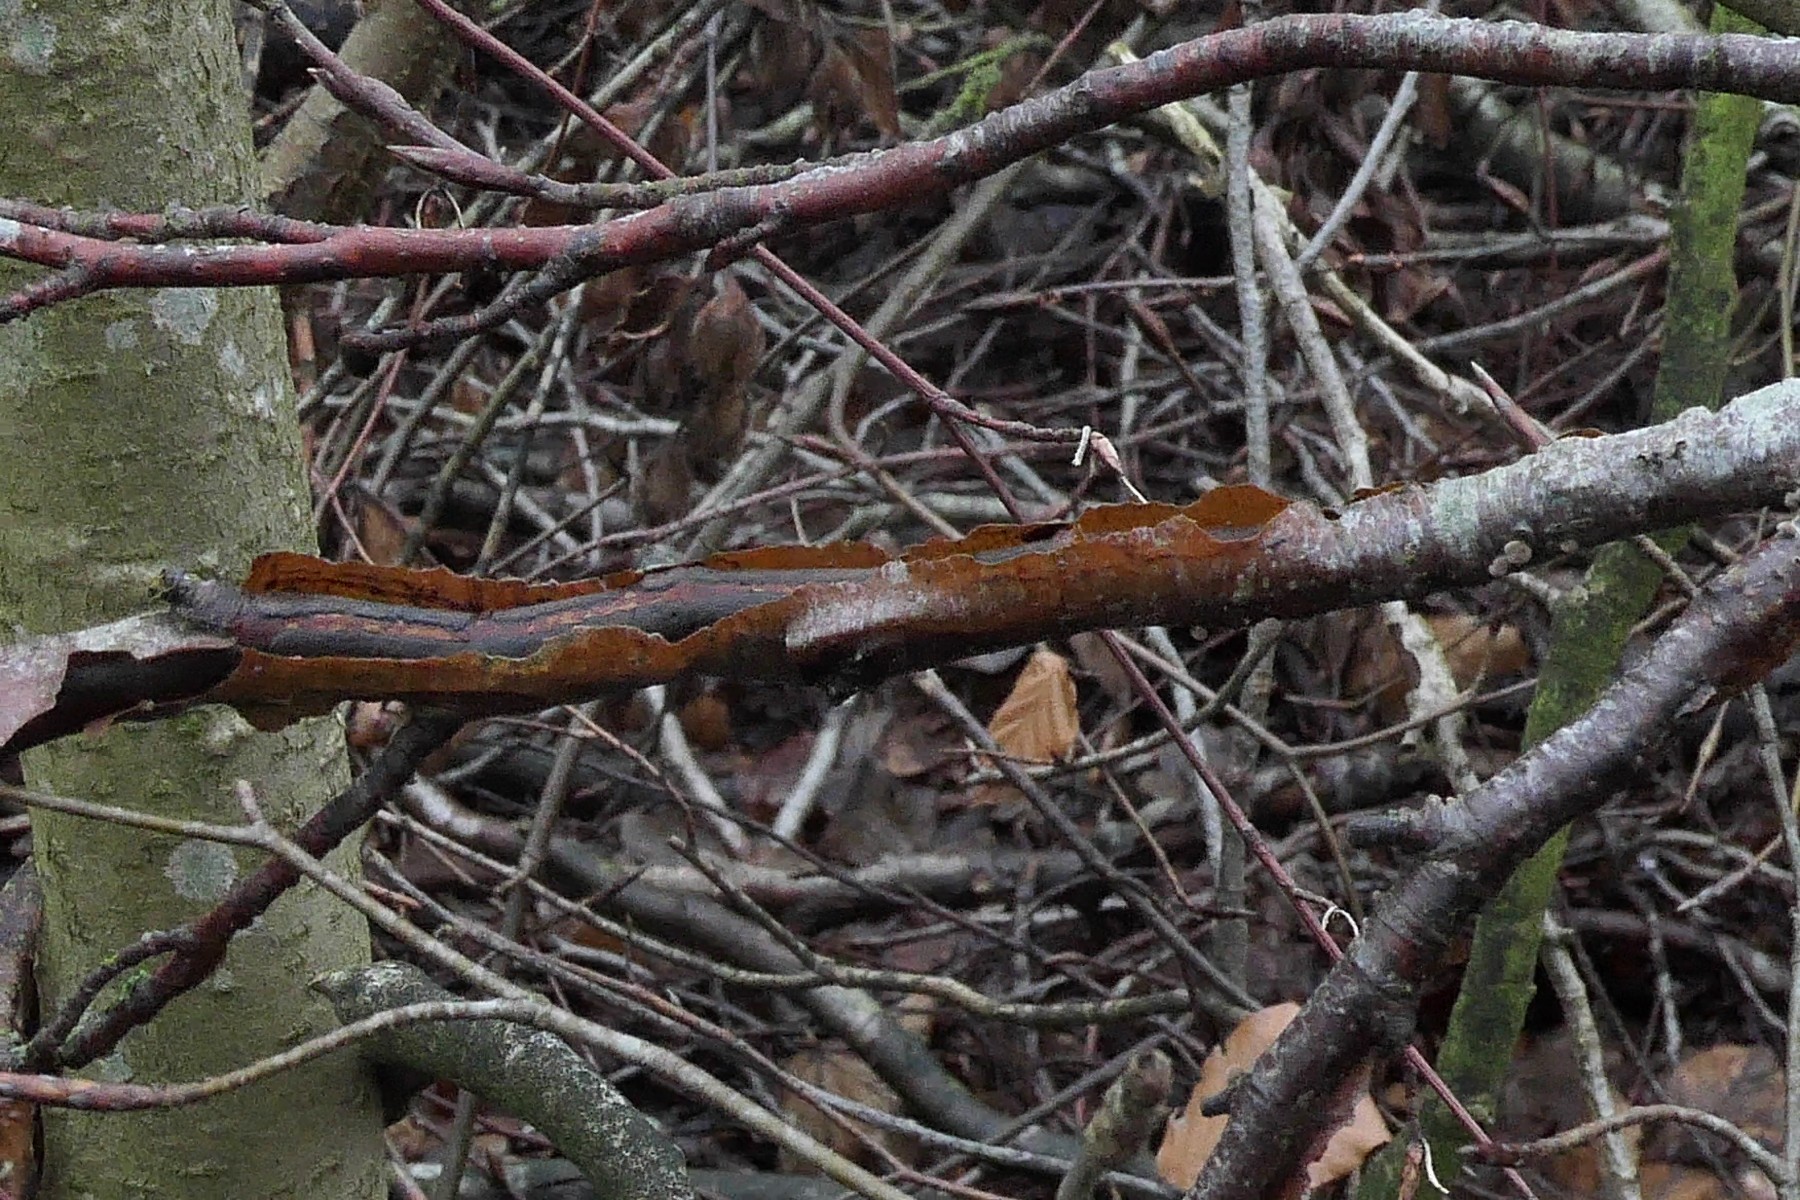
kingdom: Fungi
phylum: Basidiomycota
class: Agaricomycetes
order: Corticiales
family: Vuilleminiaceae
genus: Vuilleminia
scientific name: Vuilleminia comedens
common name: almindelig barksprænger
